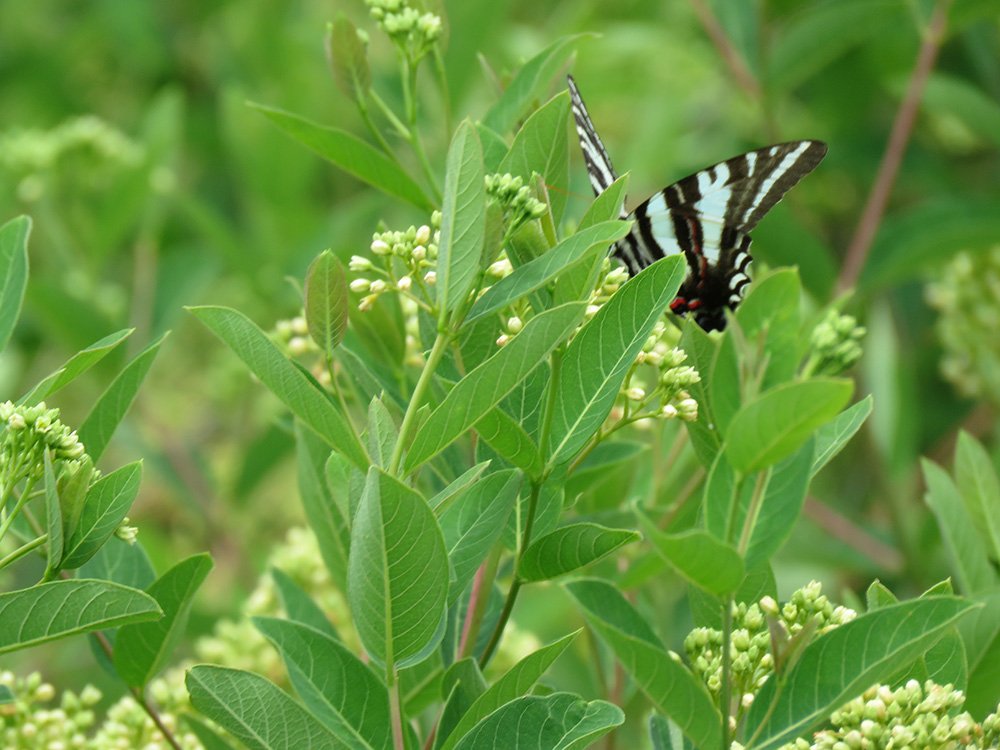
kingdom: Animalia
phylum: Arthropoda
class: Insecta
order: Lepidoptera
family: Papilionidae
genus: Protographium
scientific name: Protographium marcellus
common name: Zebra Swallowtail
